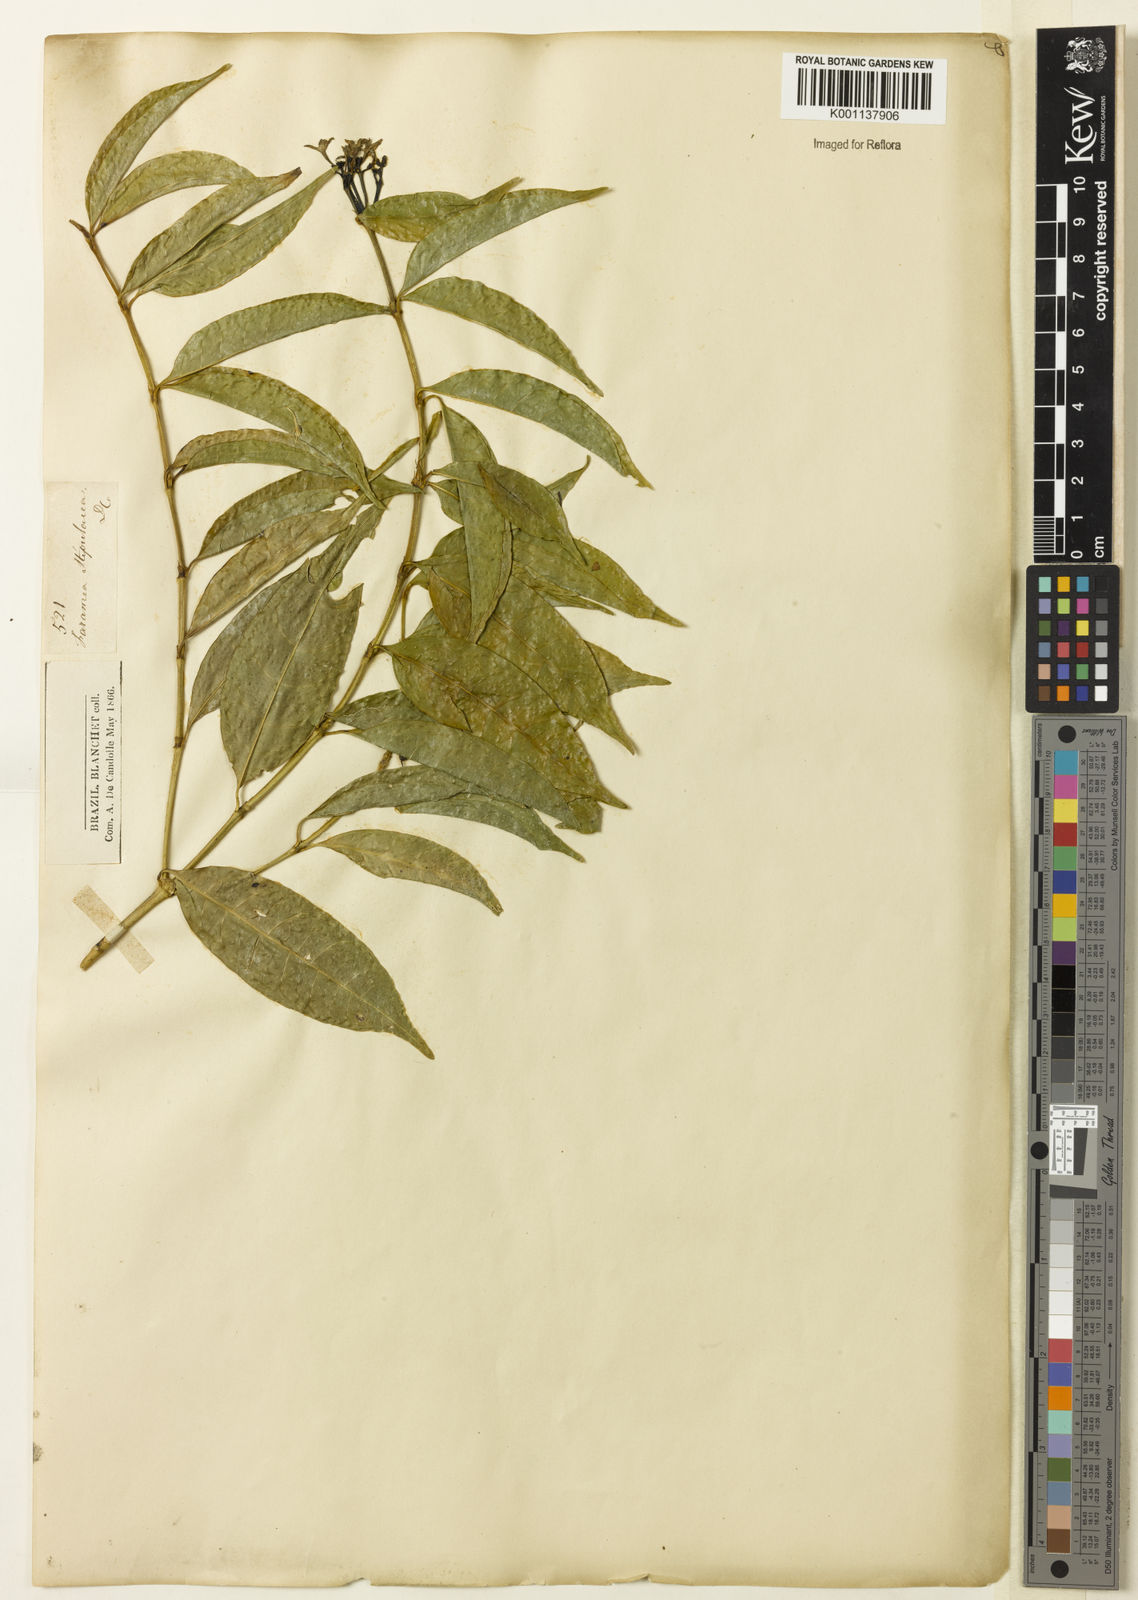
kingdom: Plantae
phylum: Tracheophyta
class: Magnoliopsida
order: Gentianales
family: Rubiaceae
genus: Faramea
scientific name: Faramea multiflora
